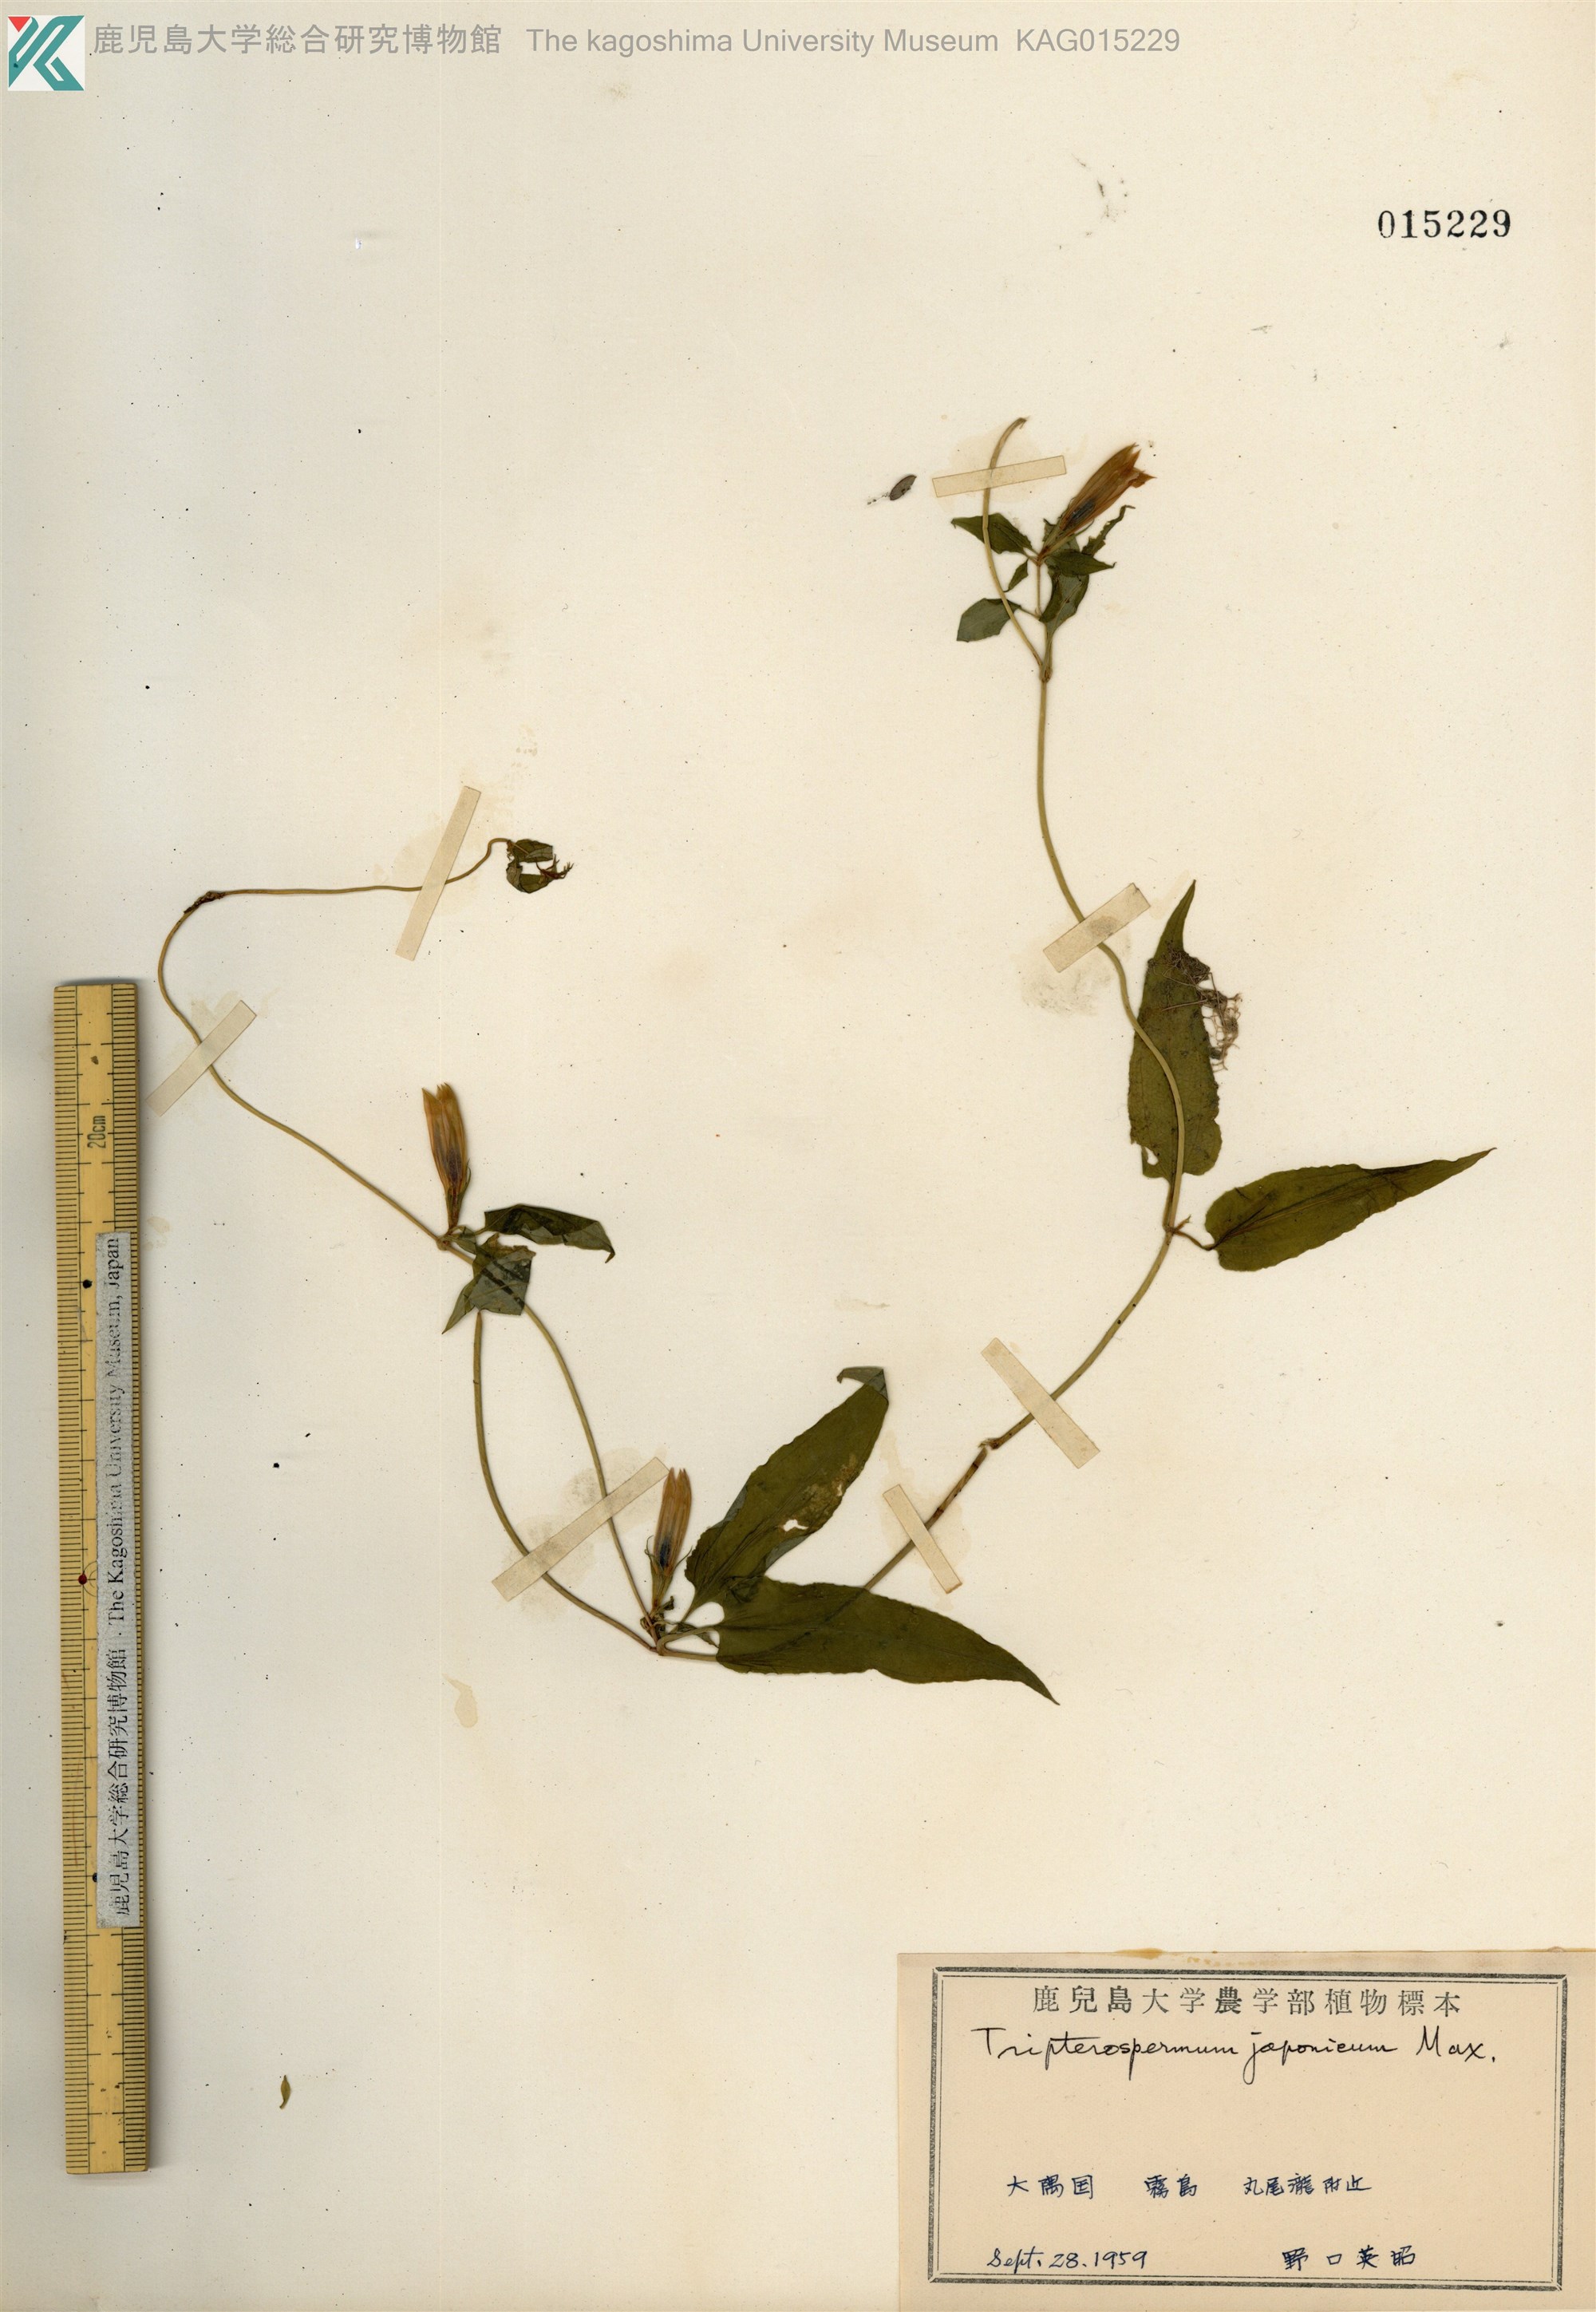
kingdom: Plantae
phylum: Tracheophyta
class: Magnoliopsida
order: Gentianales
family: Gentianaceae
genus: Tripterospermum
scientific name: Tripterospermum trinervium
